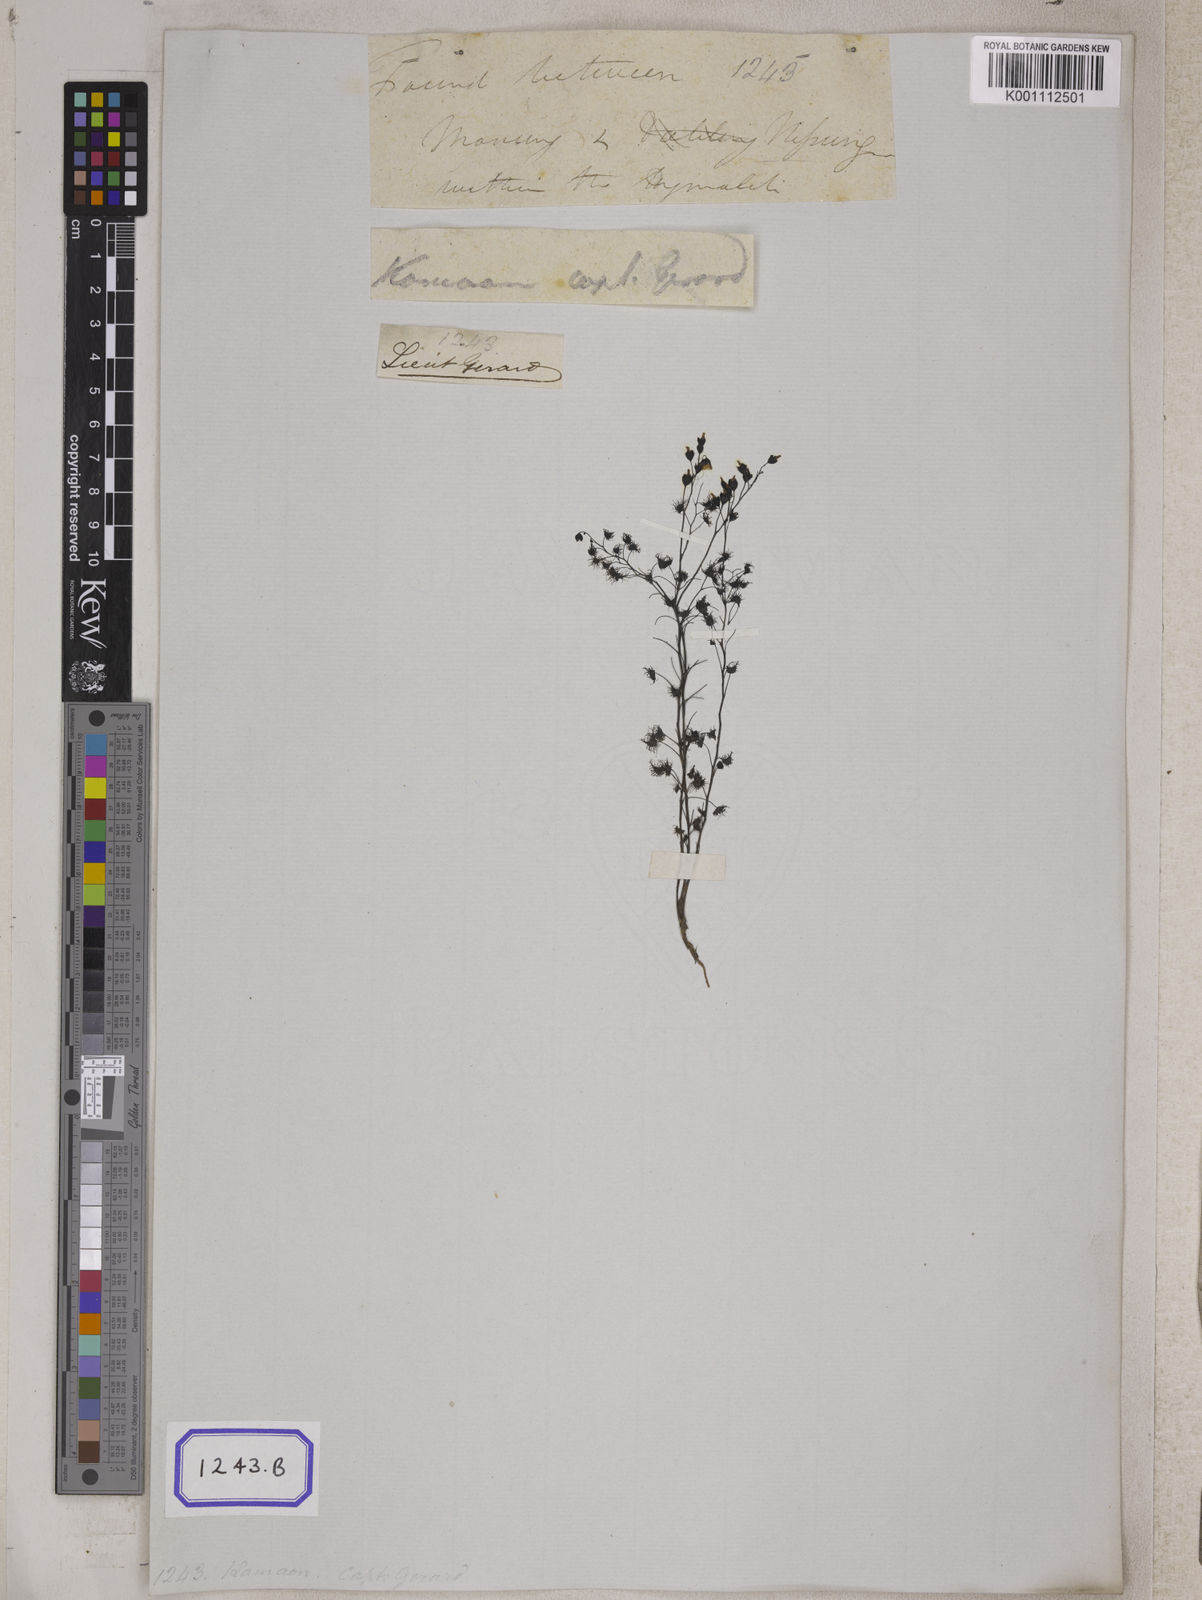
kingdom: Plantae
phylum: Tracheophyta
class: Magnoliopsida
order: Caryophyllales
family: Droseraceae
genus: Drosera
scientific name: Drosera
